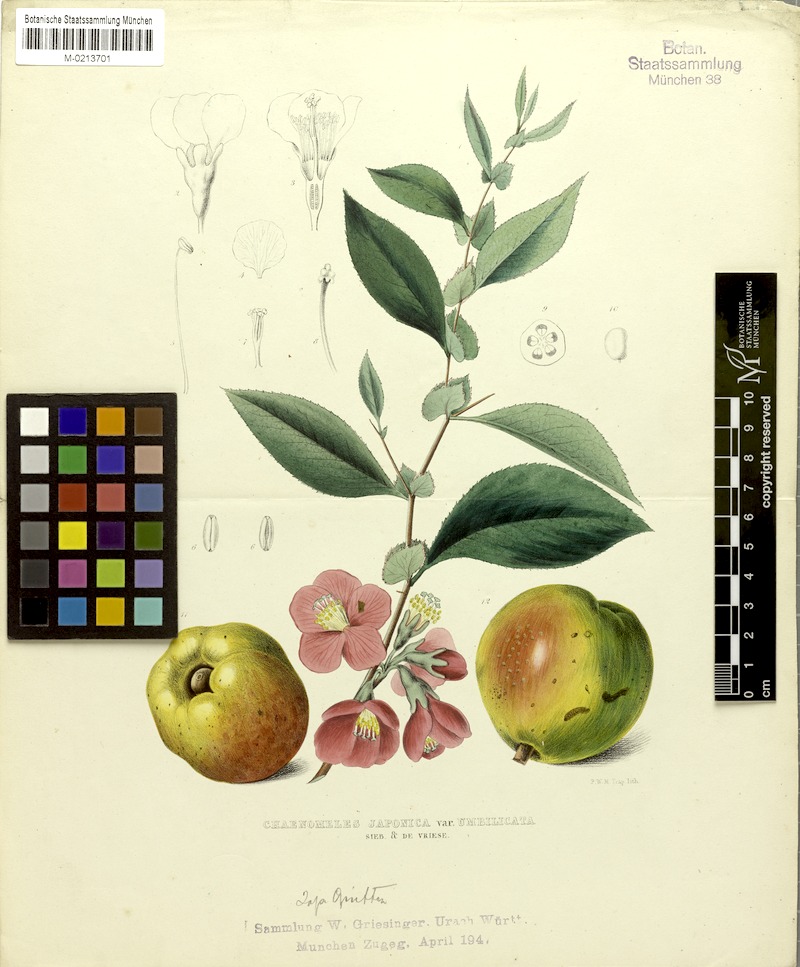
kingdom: Plantae
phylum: Tracheophyta
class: Magnoliopsida
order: Rosales
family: Rosaceae
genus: Chaenomeles
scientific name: Chaenomeles japonica
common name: Japanese quince
